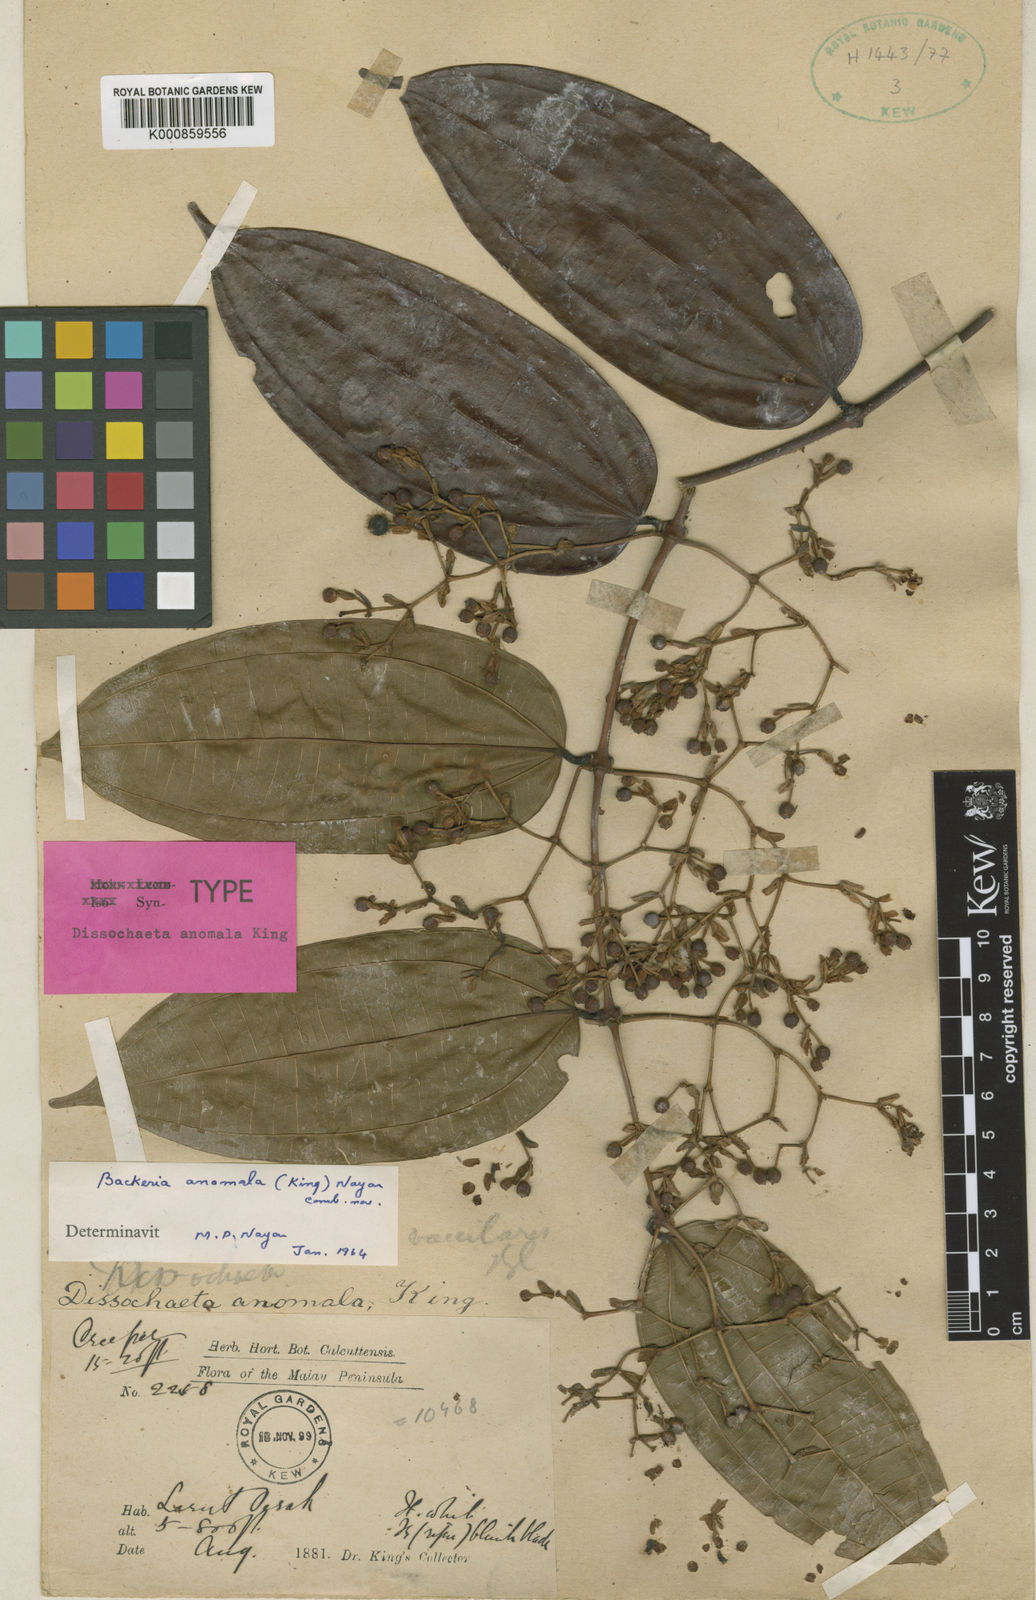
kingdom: Plantae
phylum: Tracheophyta
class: Magnoliopsida
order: Myrtales
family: Melastomataceae
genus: Diplectria
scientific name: Diplectria viminalis
